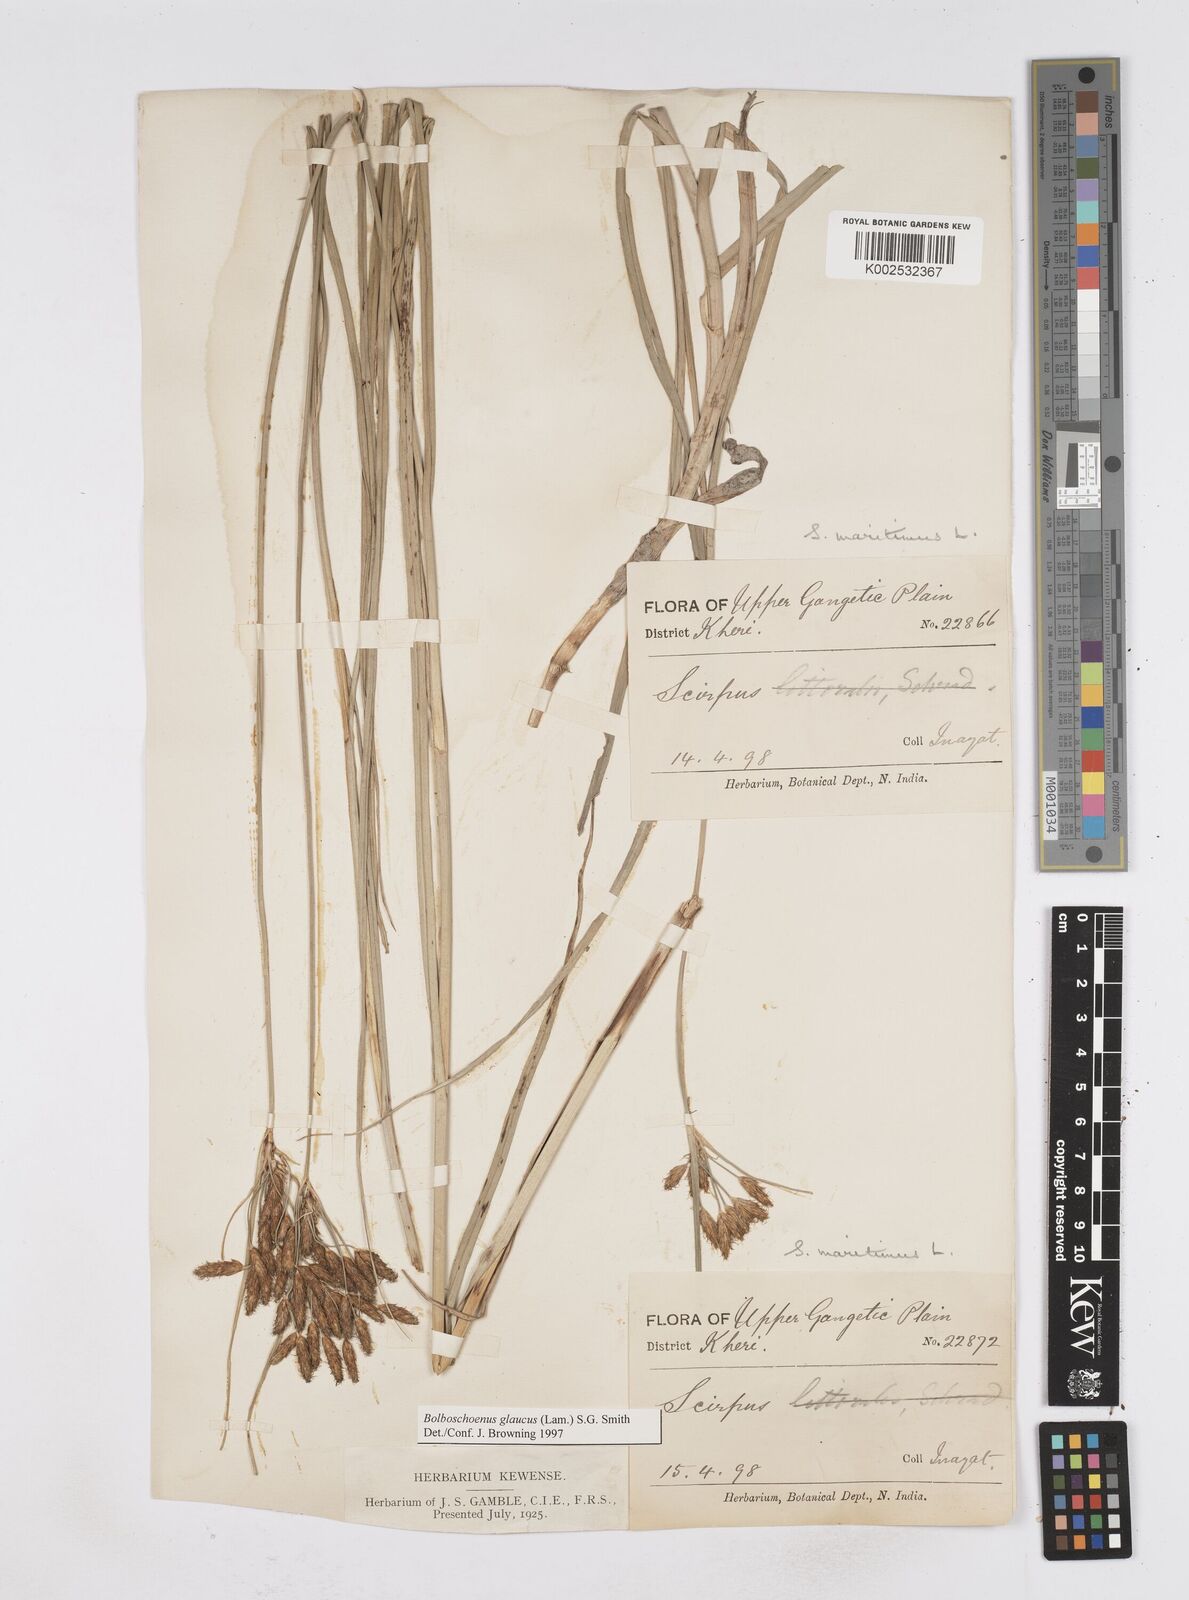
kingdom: Plantae
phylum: Tracheophyta
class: Liliopsida
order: Poales
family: Cyperaceae
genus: Bolboschoenus
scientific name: Bolboschoenus maritimus
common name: Sea club-rush
